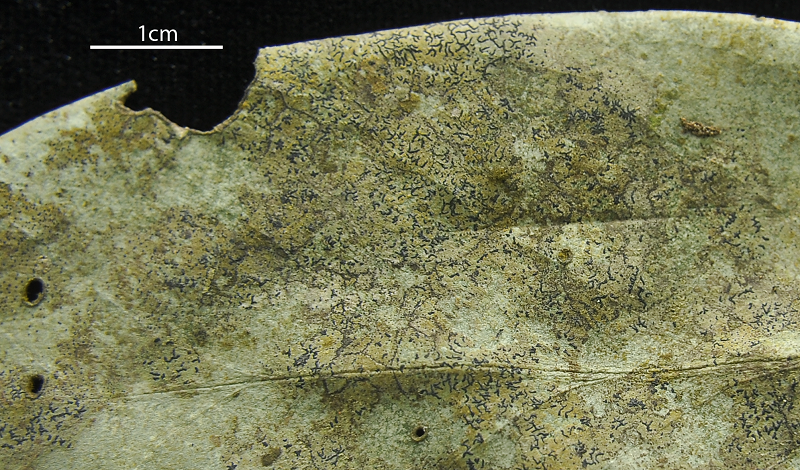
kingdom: Fungi
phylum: Ascomycota
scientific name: Ascomycota
